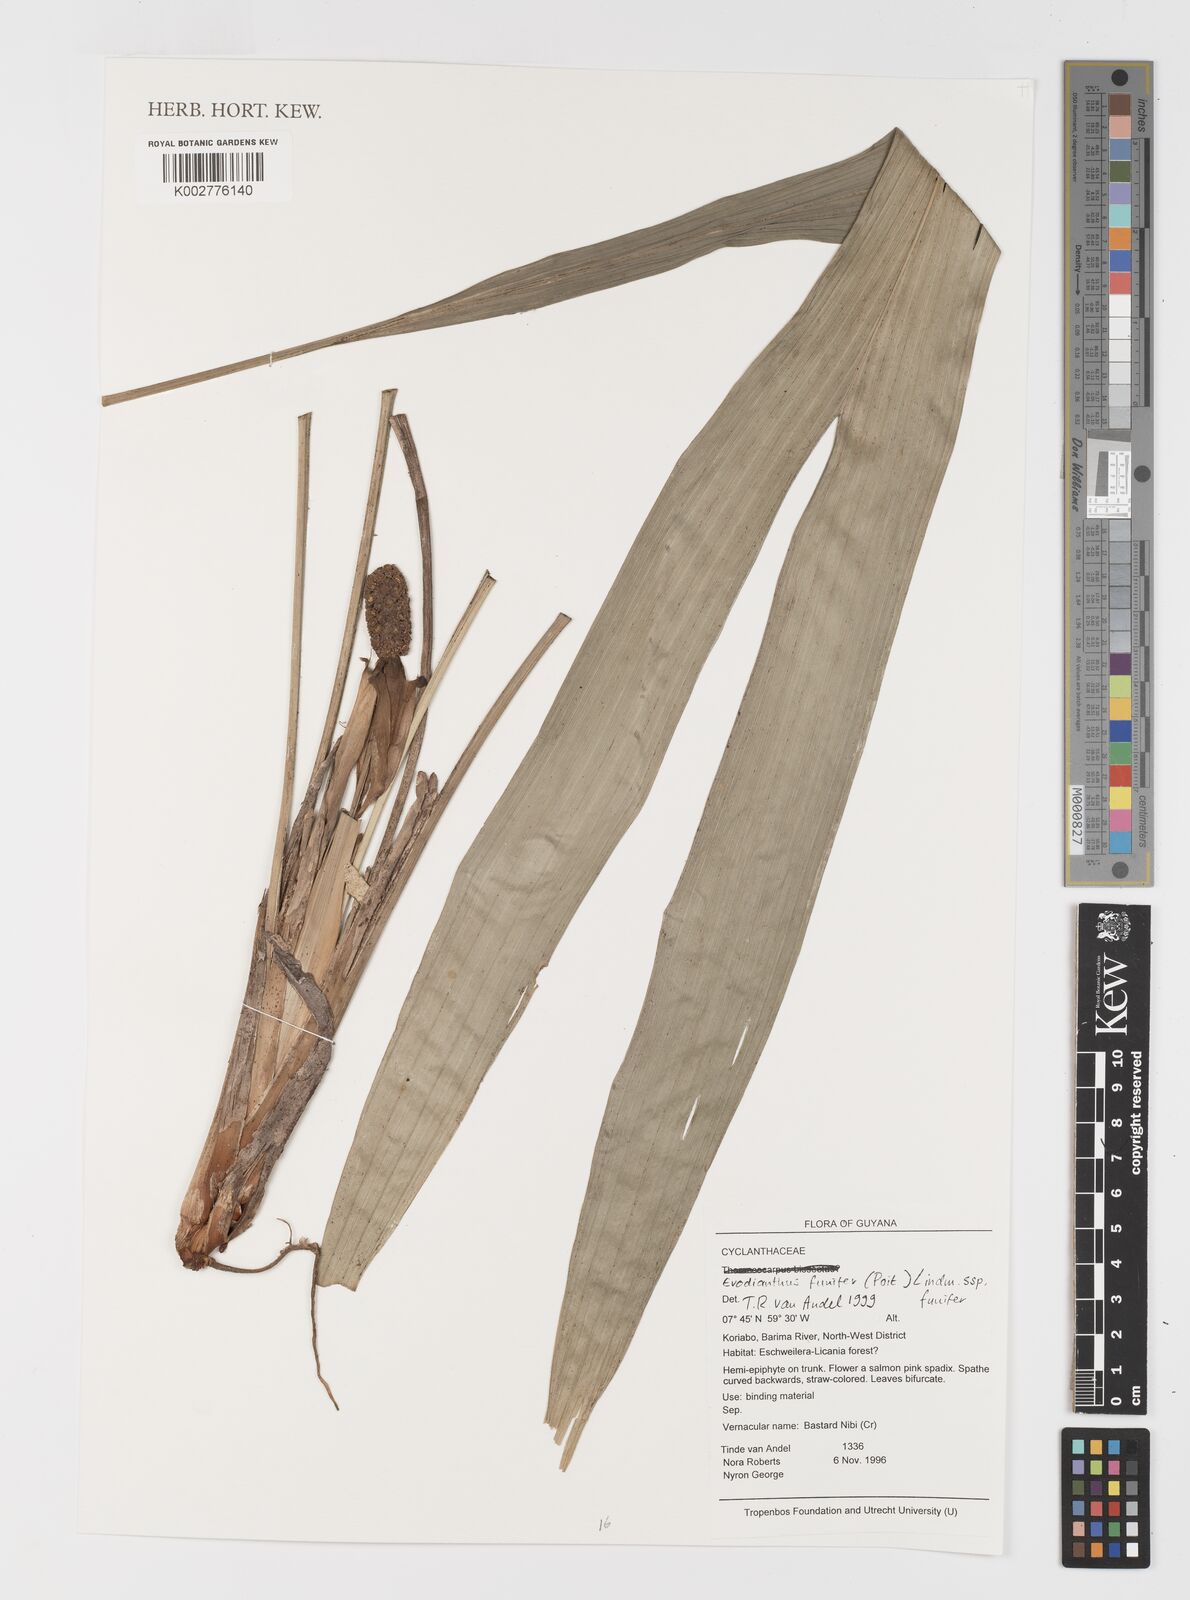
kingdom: Plantae
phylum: Tracheophyta
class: Liliopsida
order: Pandanales
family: Cyclanthaceae
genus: Evodianthus
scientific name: Evodianthus funifer
